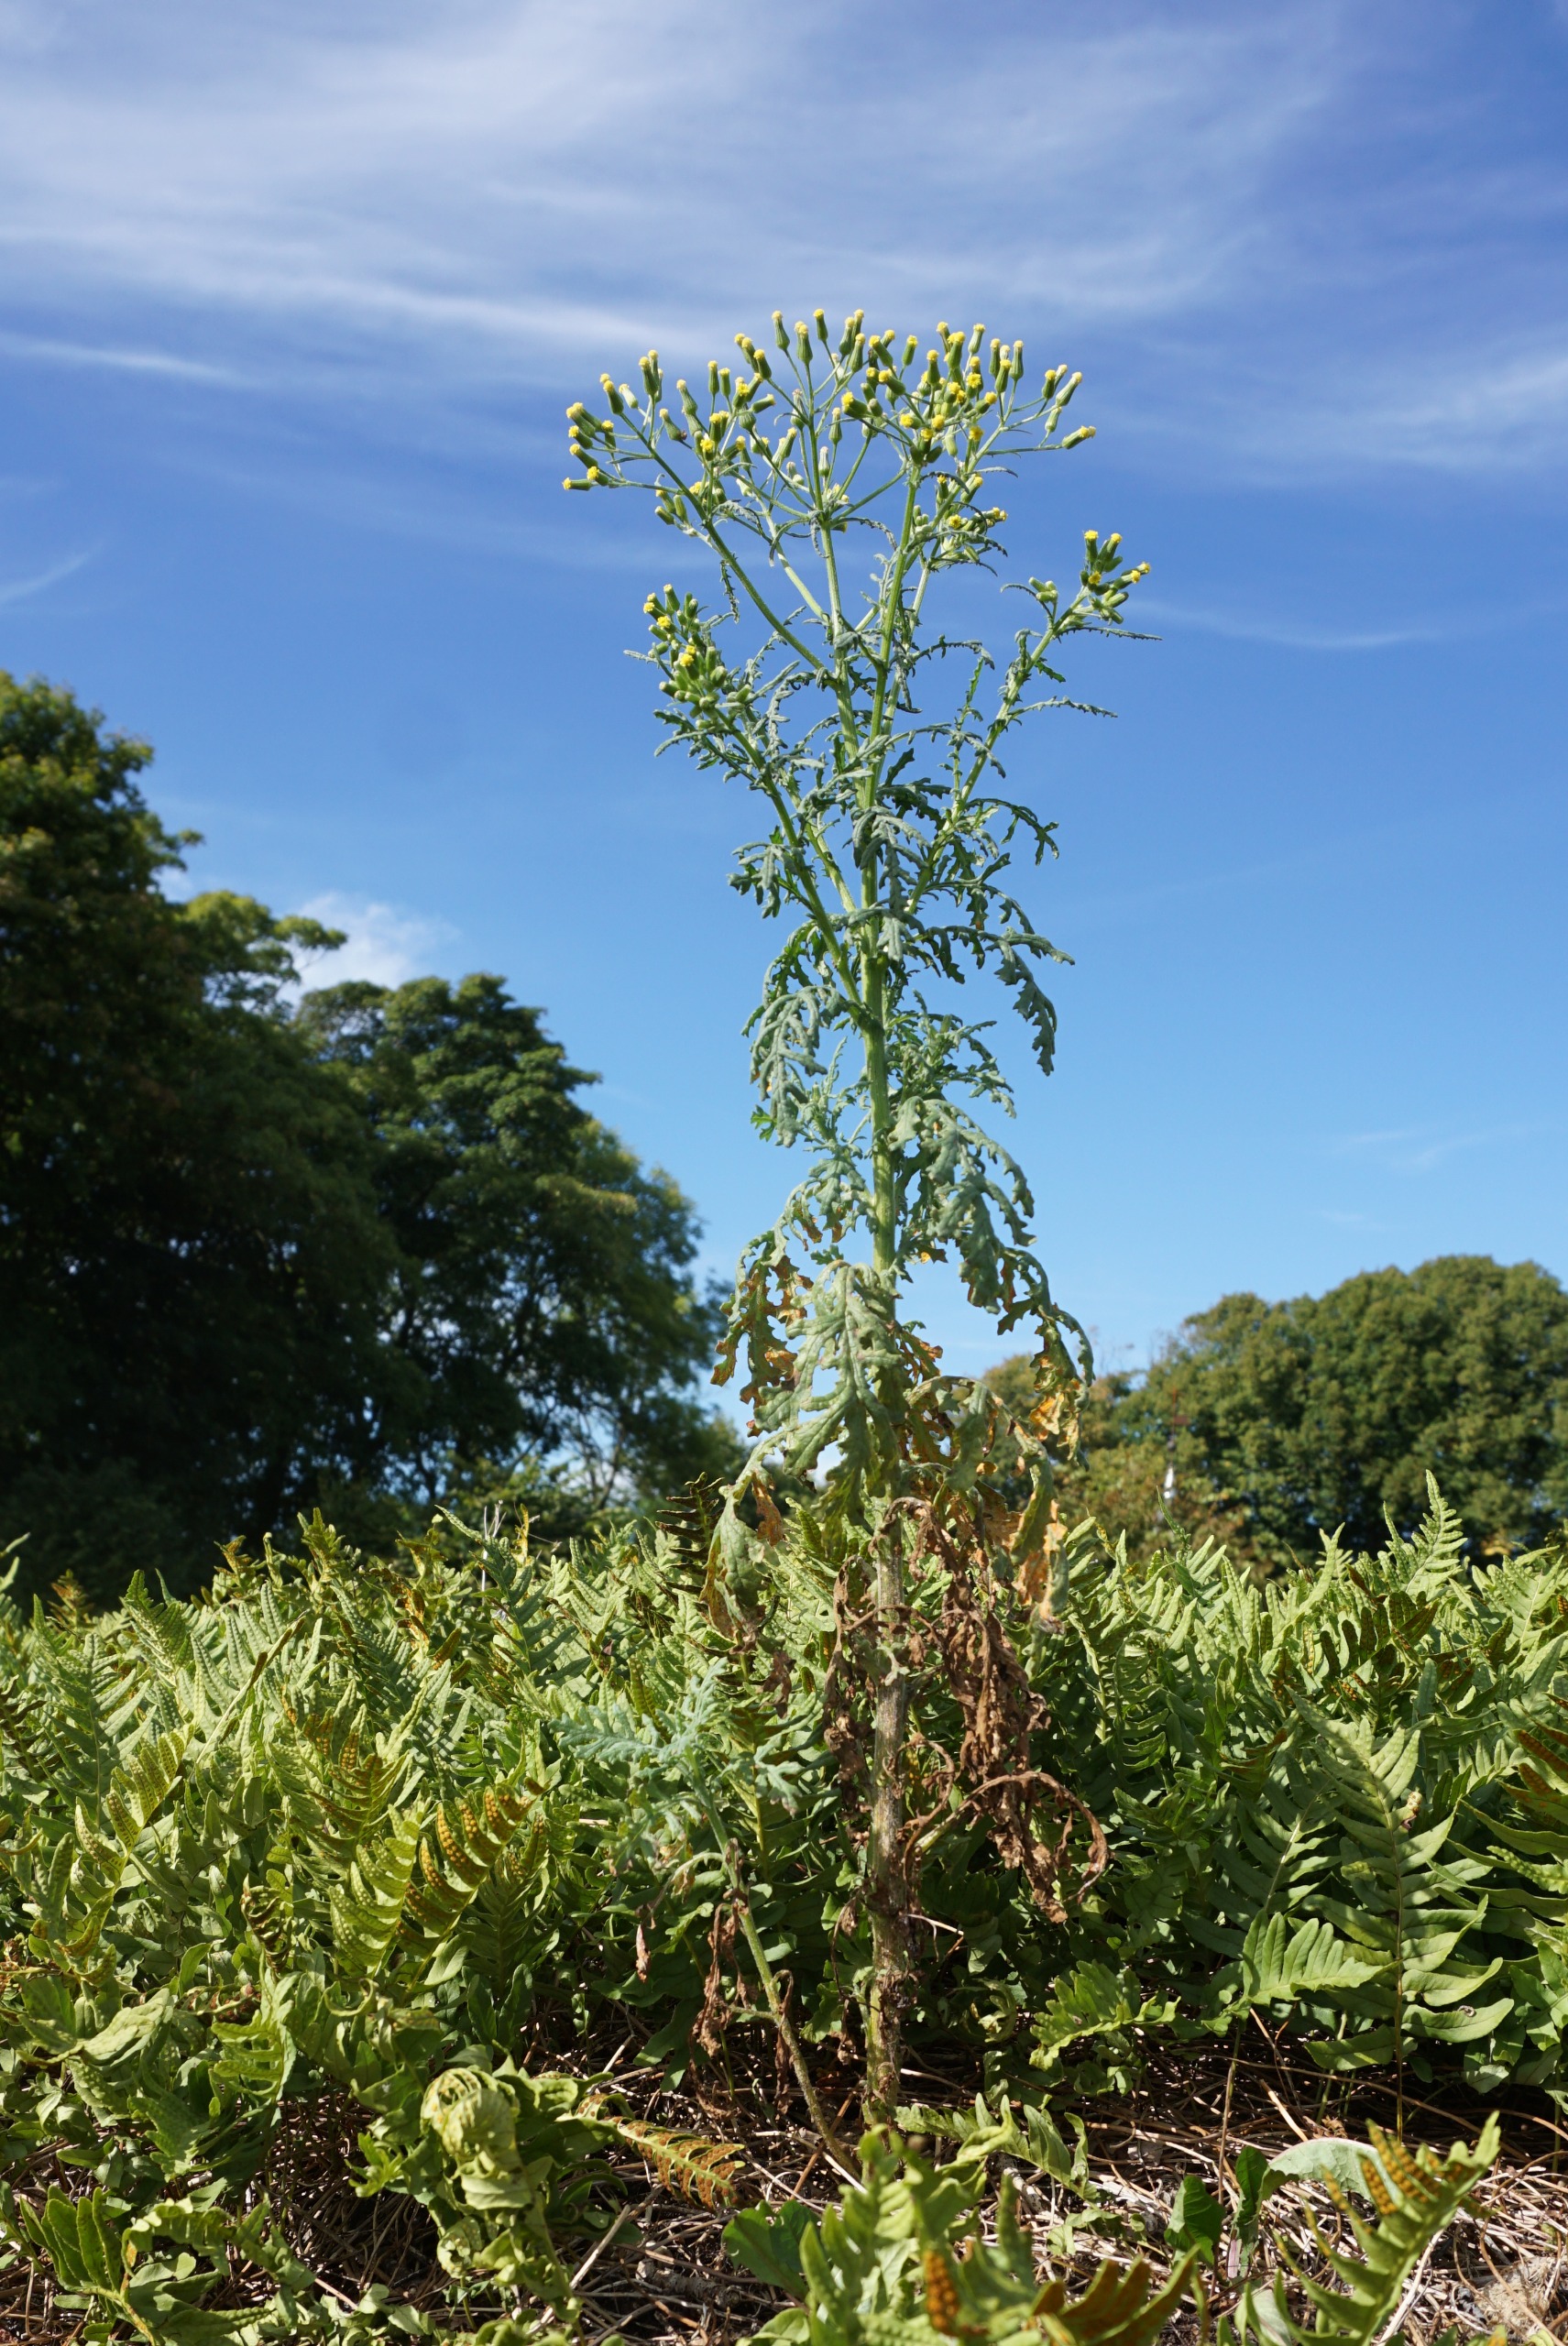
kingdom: Plantae
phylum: Tracheophyta
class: Magnoliopsida
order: Asterales
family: Asteraceae
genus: Senecio
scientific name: Senecio sylvaticus
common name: Skov-brandbæger
